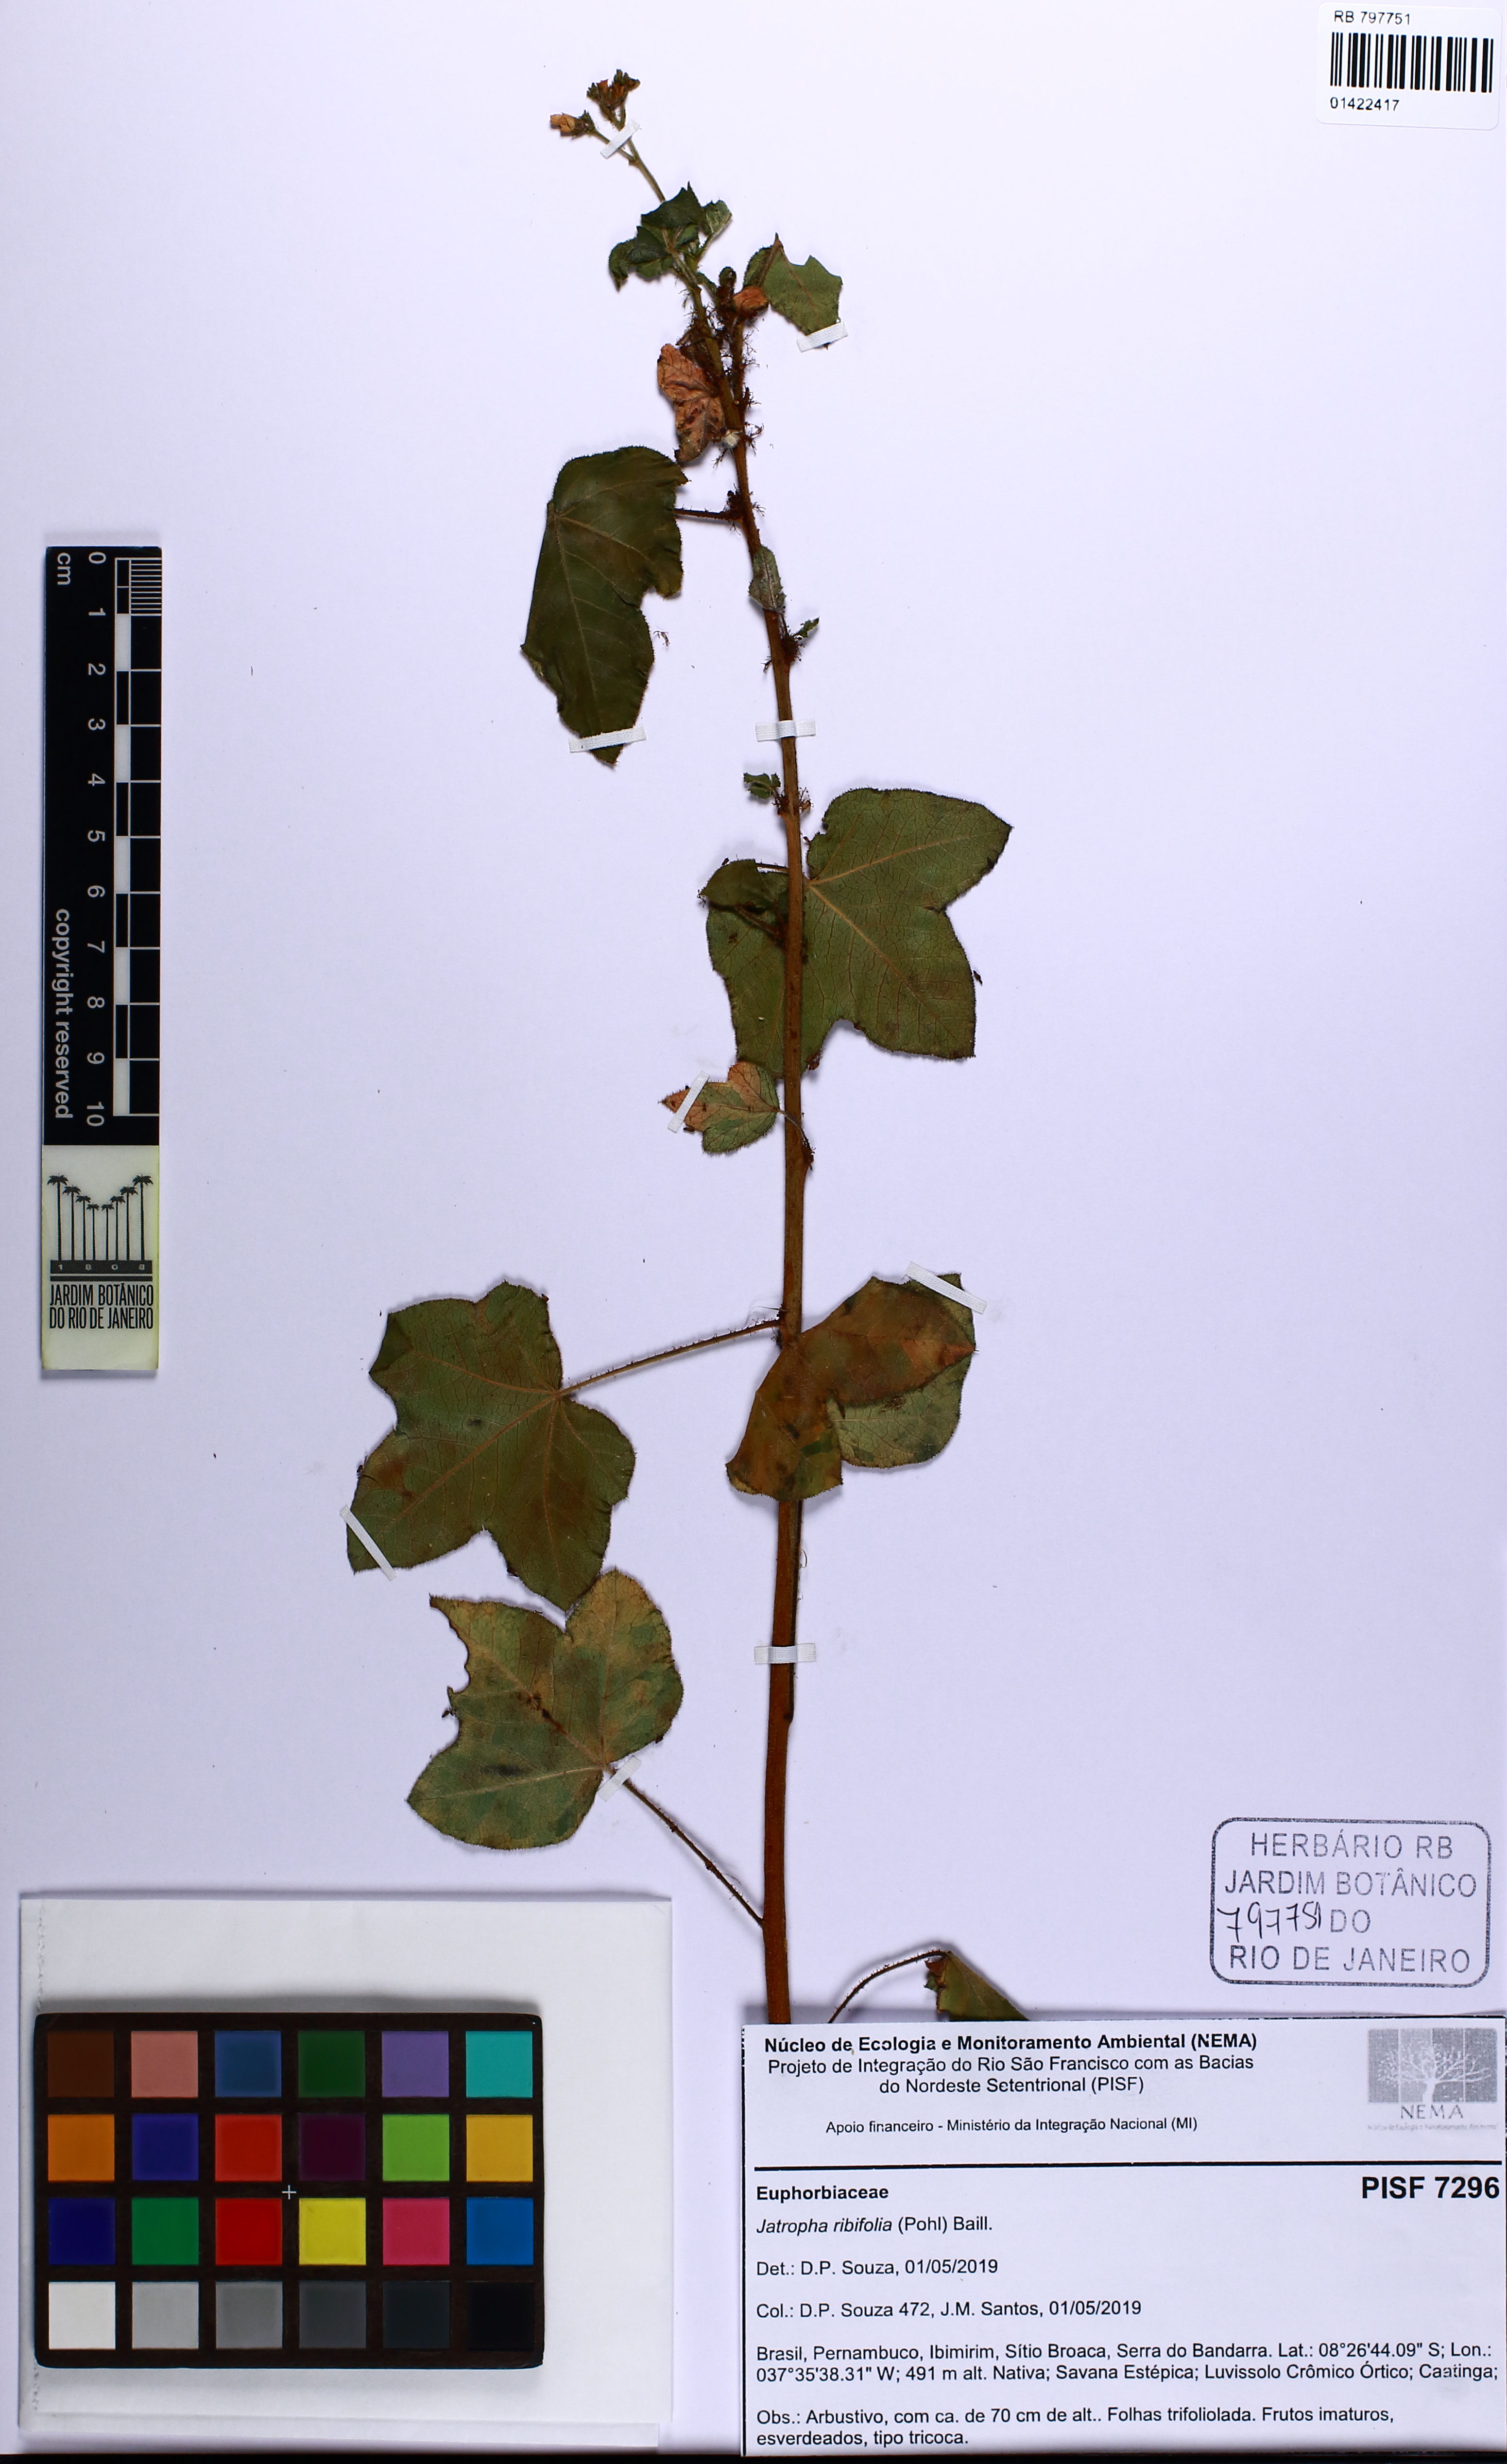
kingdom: Plantae
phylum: Tracheophyta
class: Magnoliopsida
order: Malpighiales
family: Euphorbiaceae
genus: Jatropha
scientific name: Jatropha ribifolia
